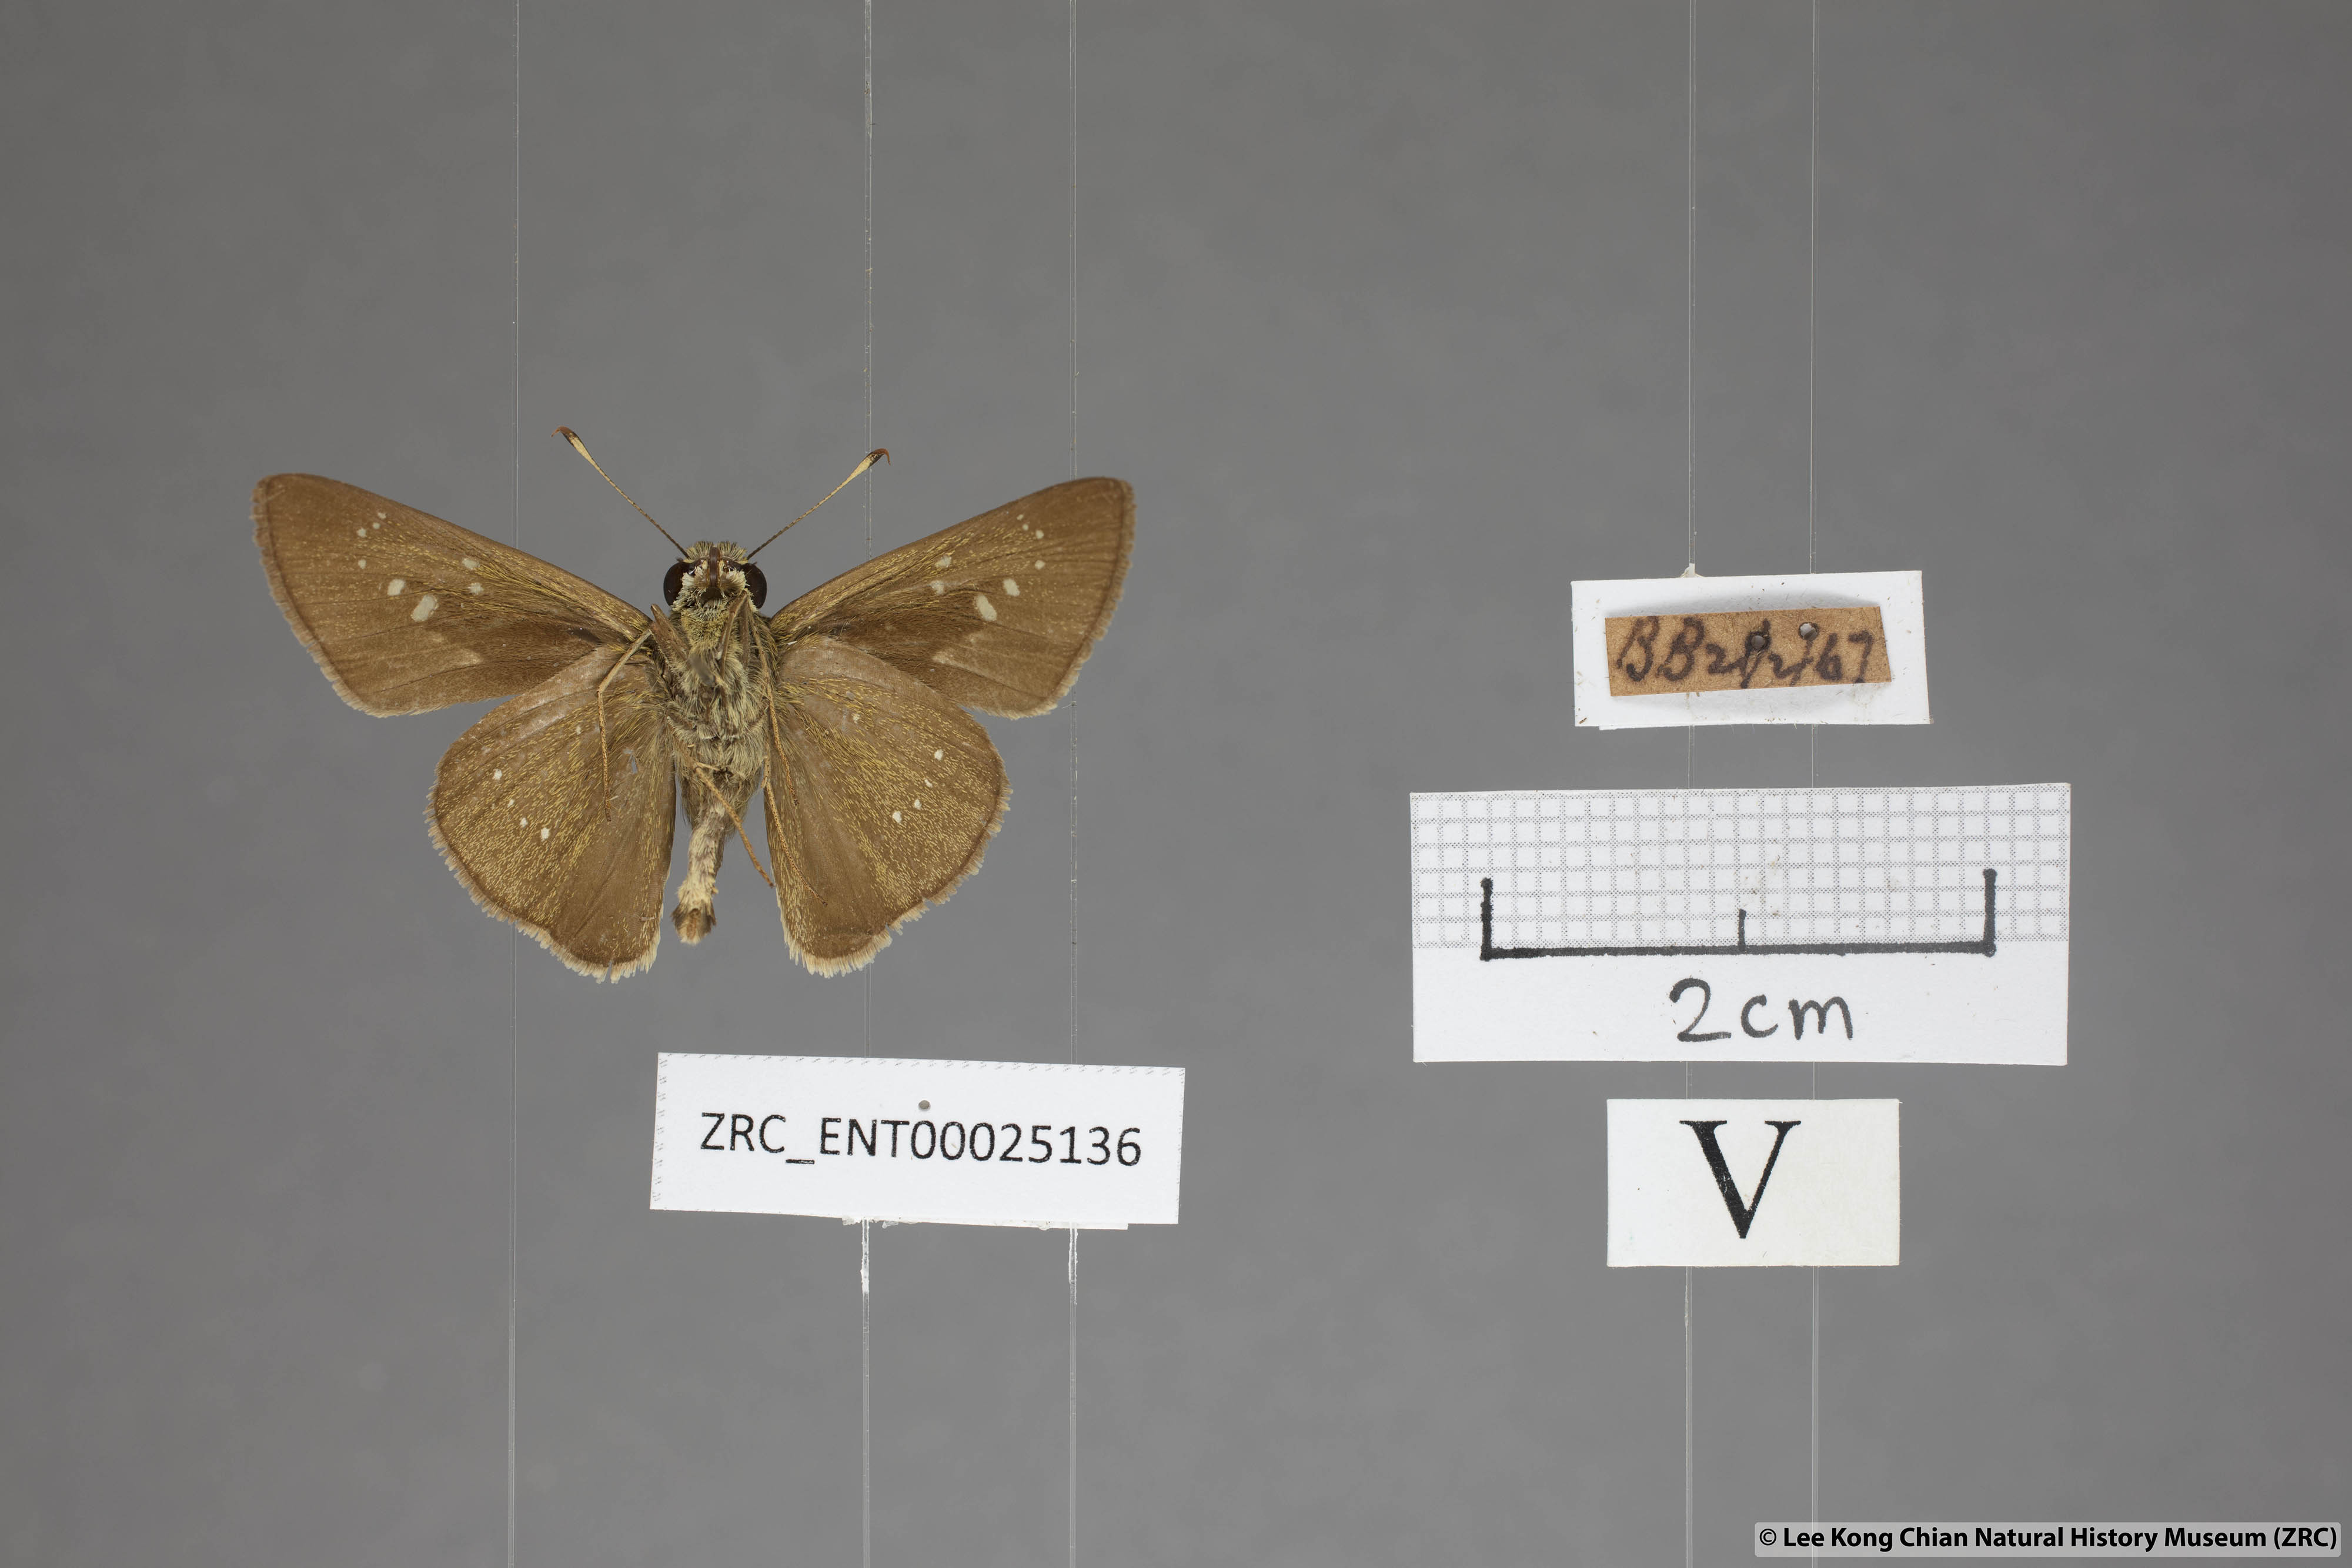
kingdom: Animalia
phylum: Arthropoda
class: Insecta
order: Lepidoptera
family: Hesperiidae
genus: Pelopidas
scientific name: Pelopidas agna
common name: Little branded swift
